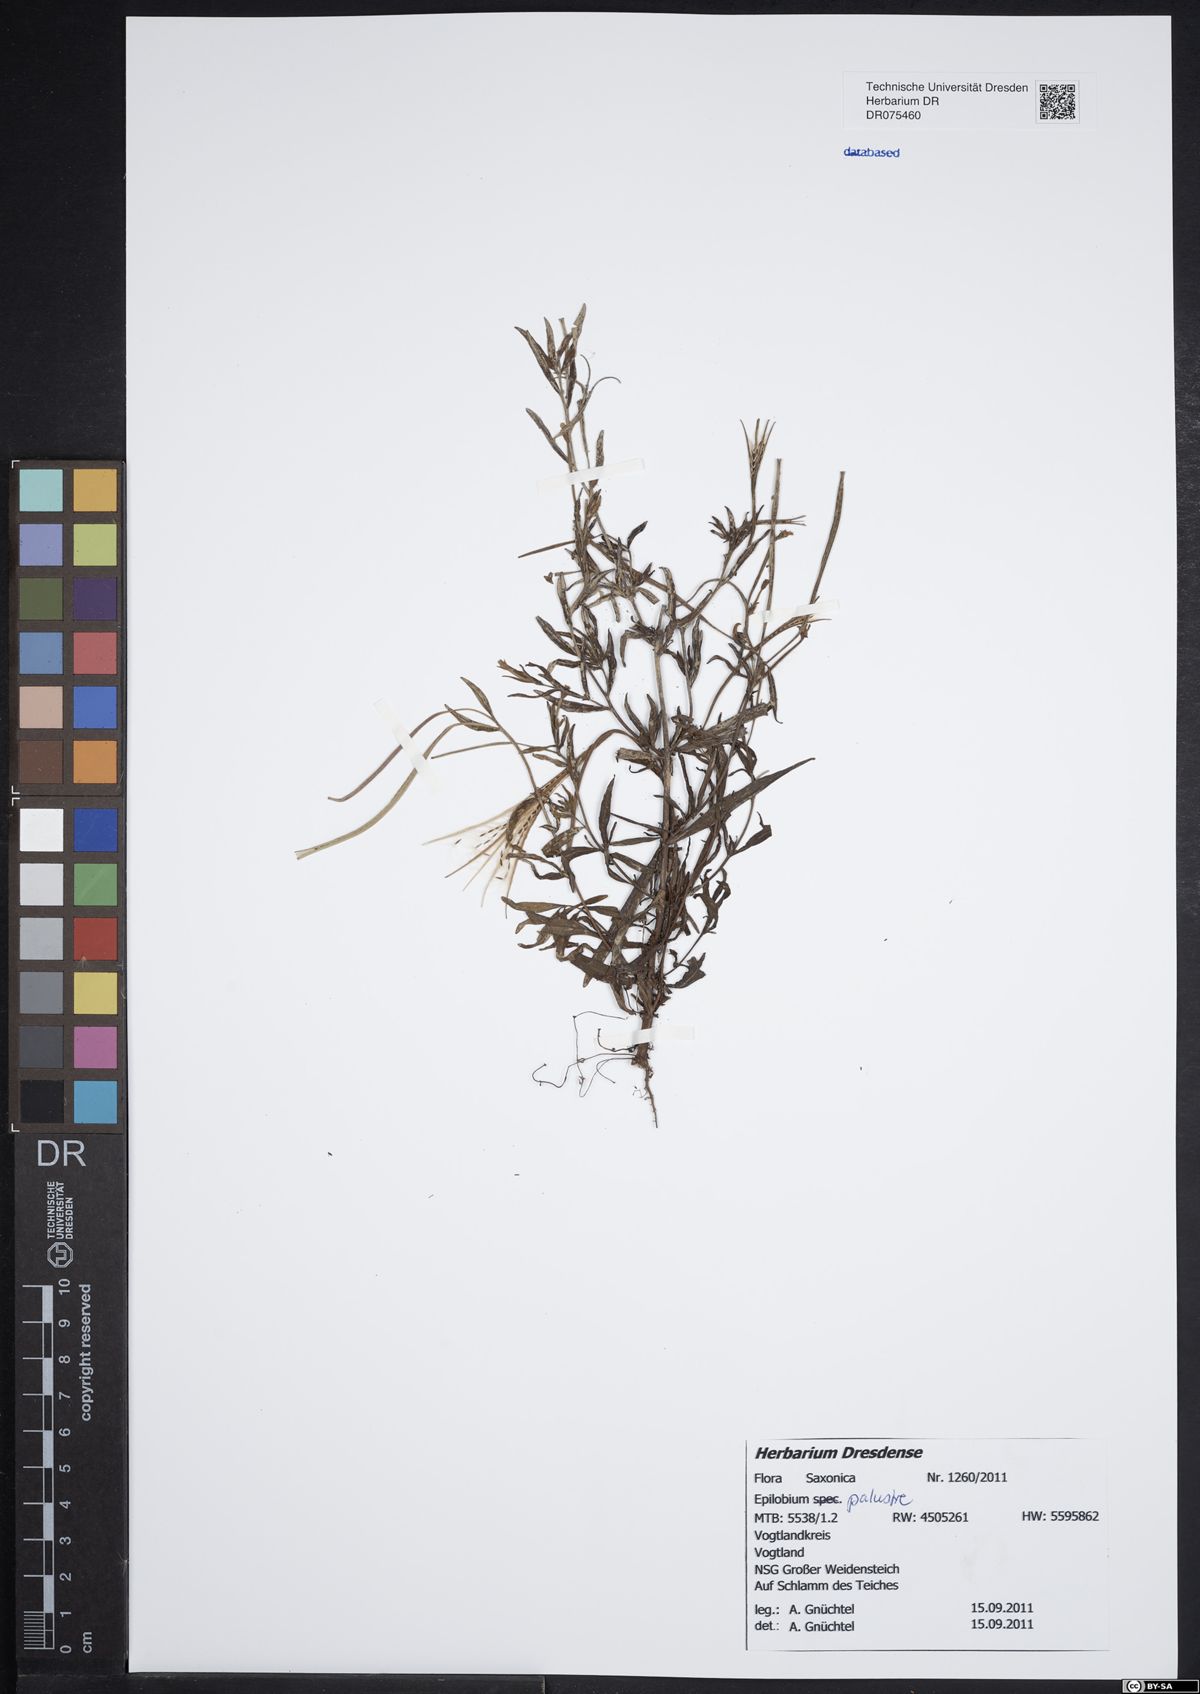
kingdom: Plantae
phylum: Tracheophyta
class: Magnoliopsida
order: Myrtales
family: Onagraceae
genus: Epilobium
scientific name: Epilobium palustre
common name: Marsh willowherb
